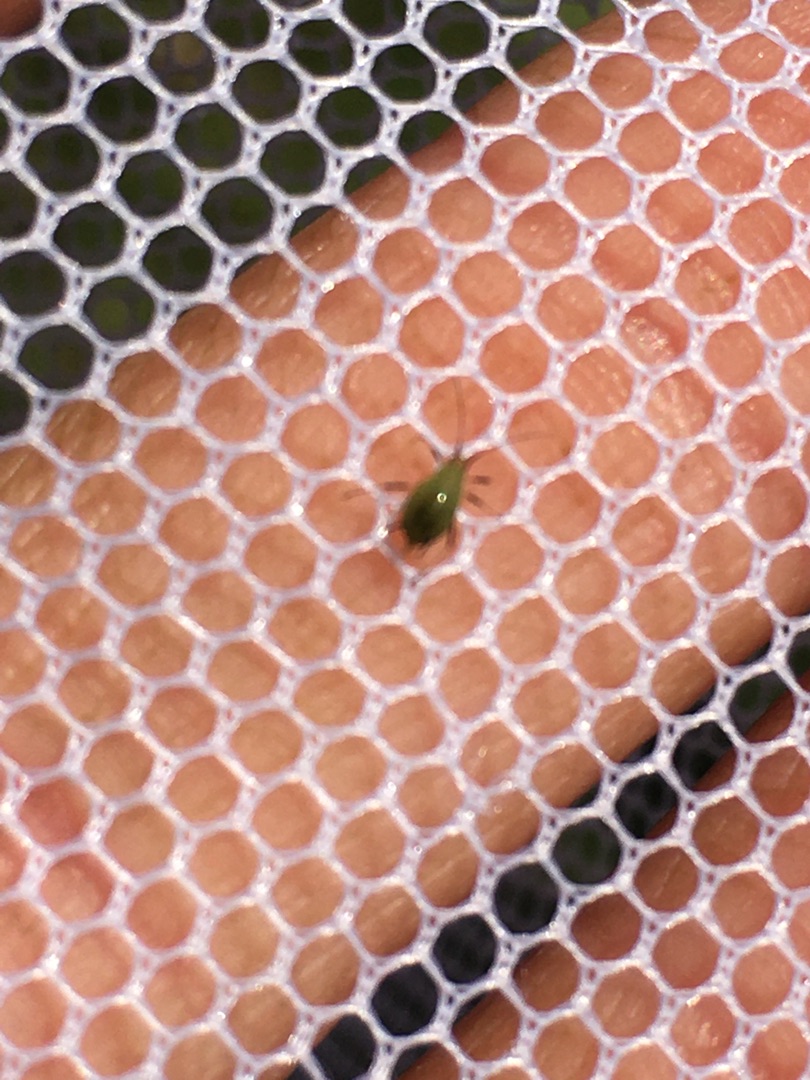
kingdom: Animalia
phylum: Arthropoda
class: Insecta
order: Hemiptera
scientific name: Hemiptera
